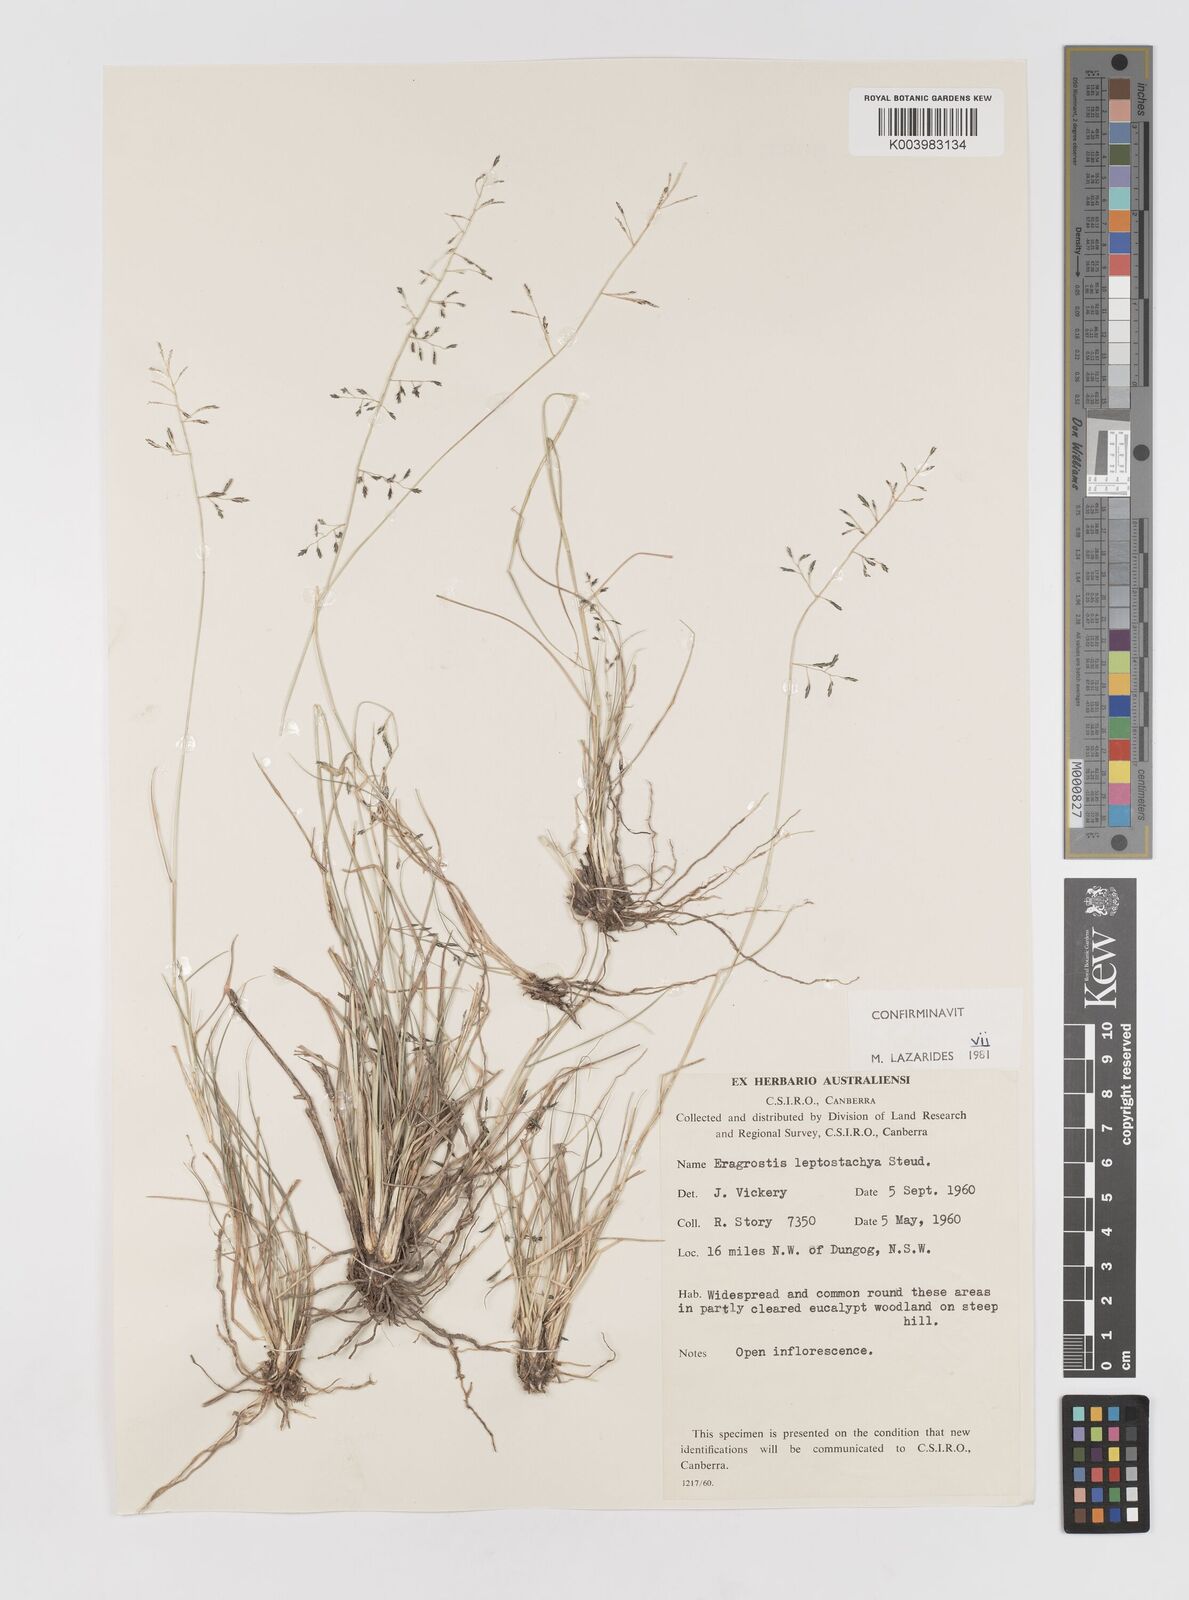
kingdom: Plantae
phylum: Tracheophyta
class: Liliopsida
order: Poales
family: Poaceae
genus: Eragrostis
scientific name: Eragrostis leptostachya
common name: Australian lovegrass
